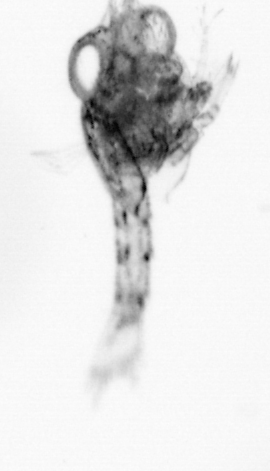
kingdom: Animalia
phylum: Arthropoda
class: Copepoda
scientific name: Copepoda
